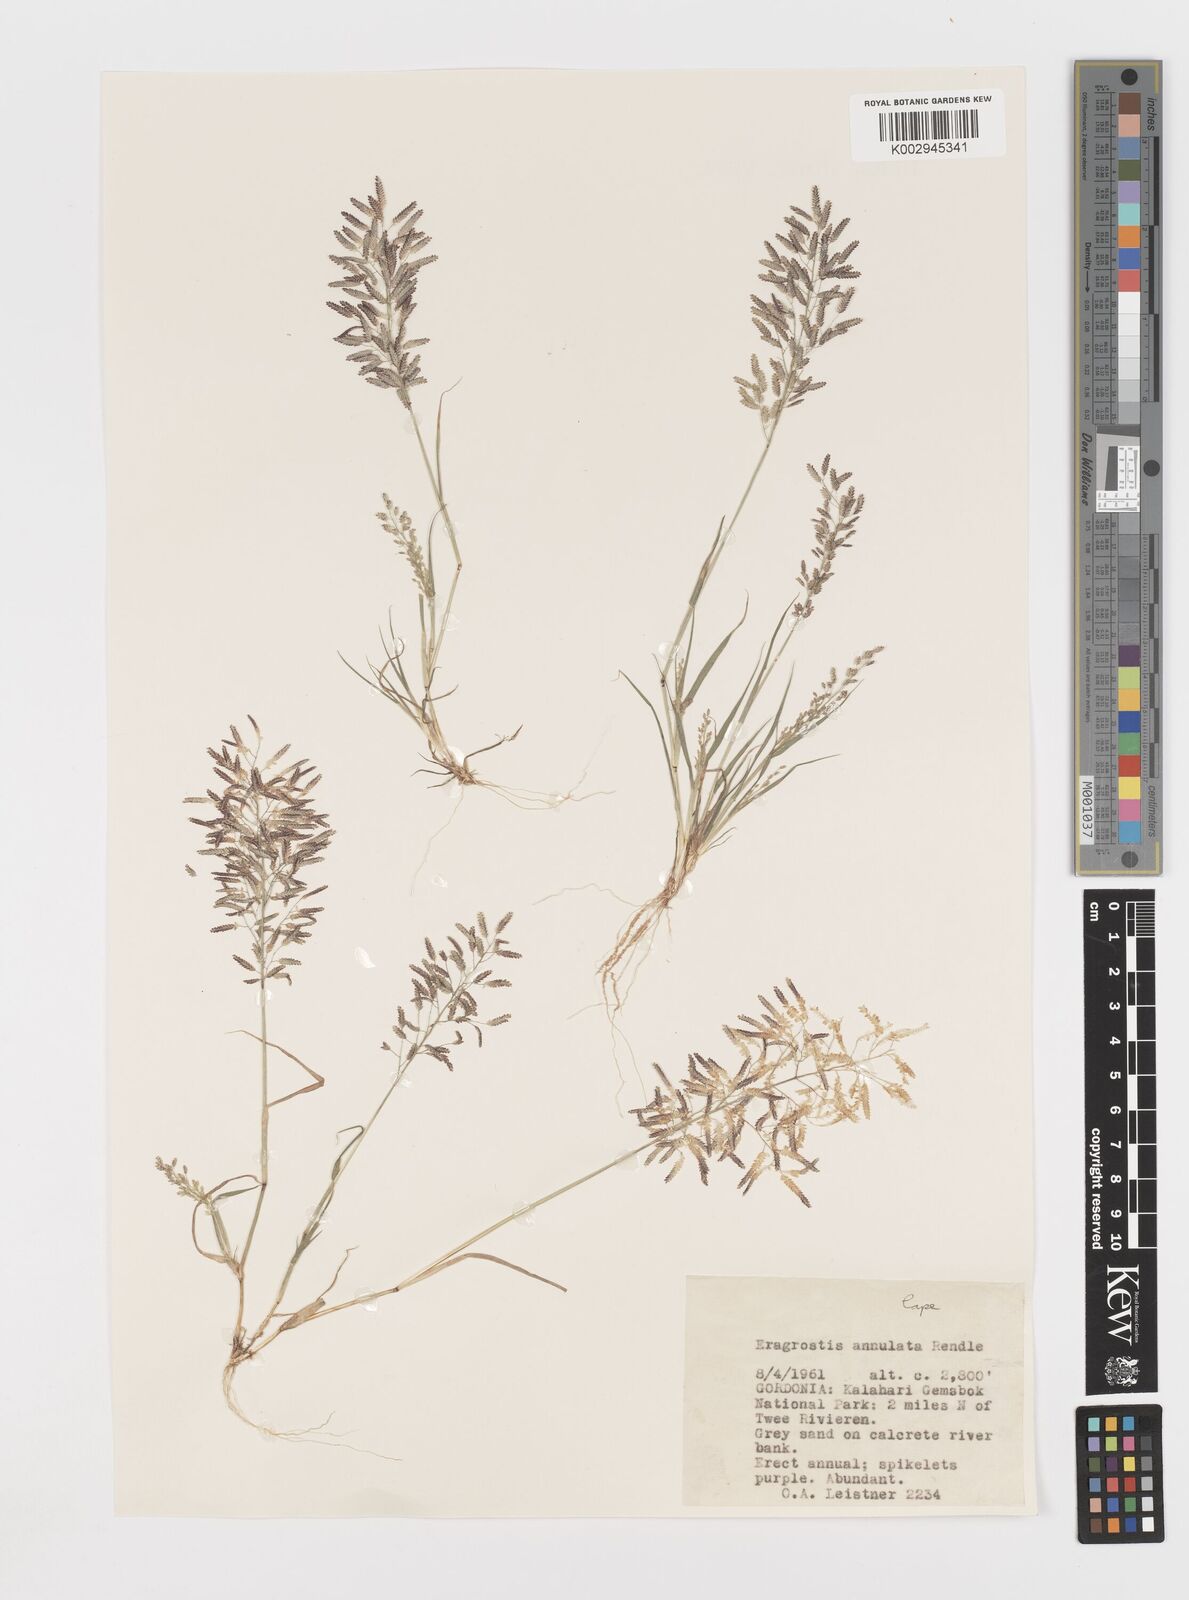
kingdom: Plantae
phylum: Tracheophyta
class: Liliopsida
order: Poales
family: Poaceae
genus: Eragrostis
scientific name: Eragrostis annulata
